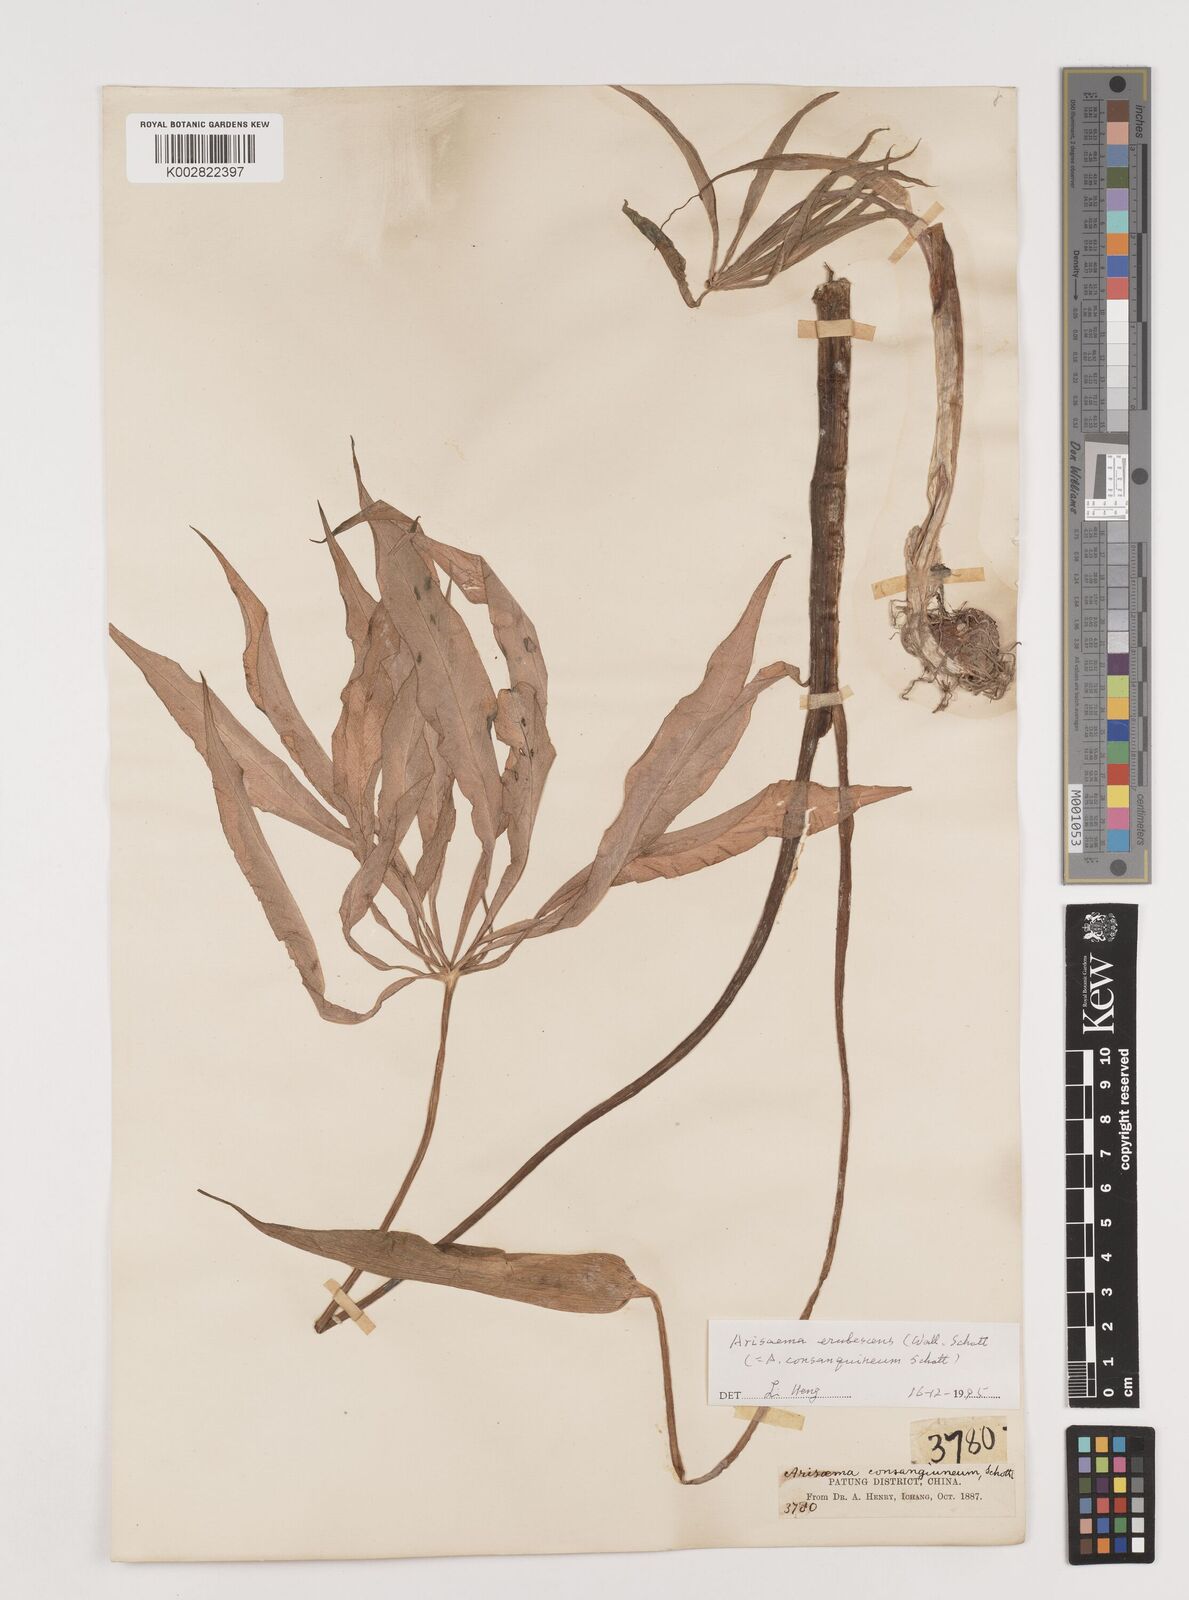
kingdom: Plantae
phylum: Tracheophyta
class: Liliopsida
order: Alismatales
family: Araceae
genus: Arisaema
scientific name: Arisaema erubescens
